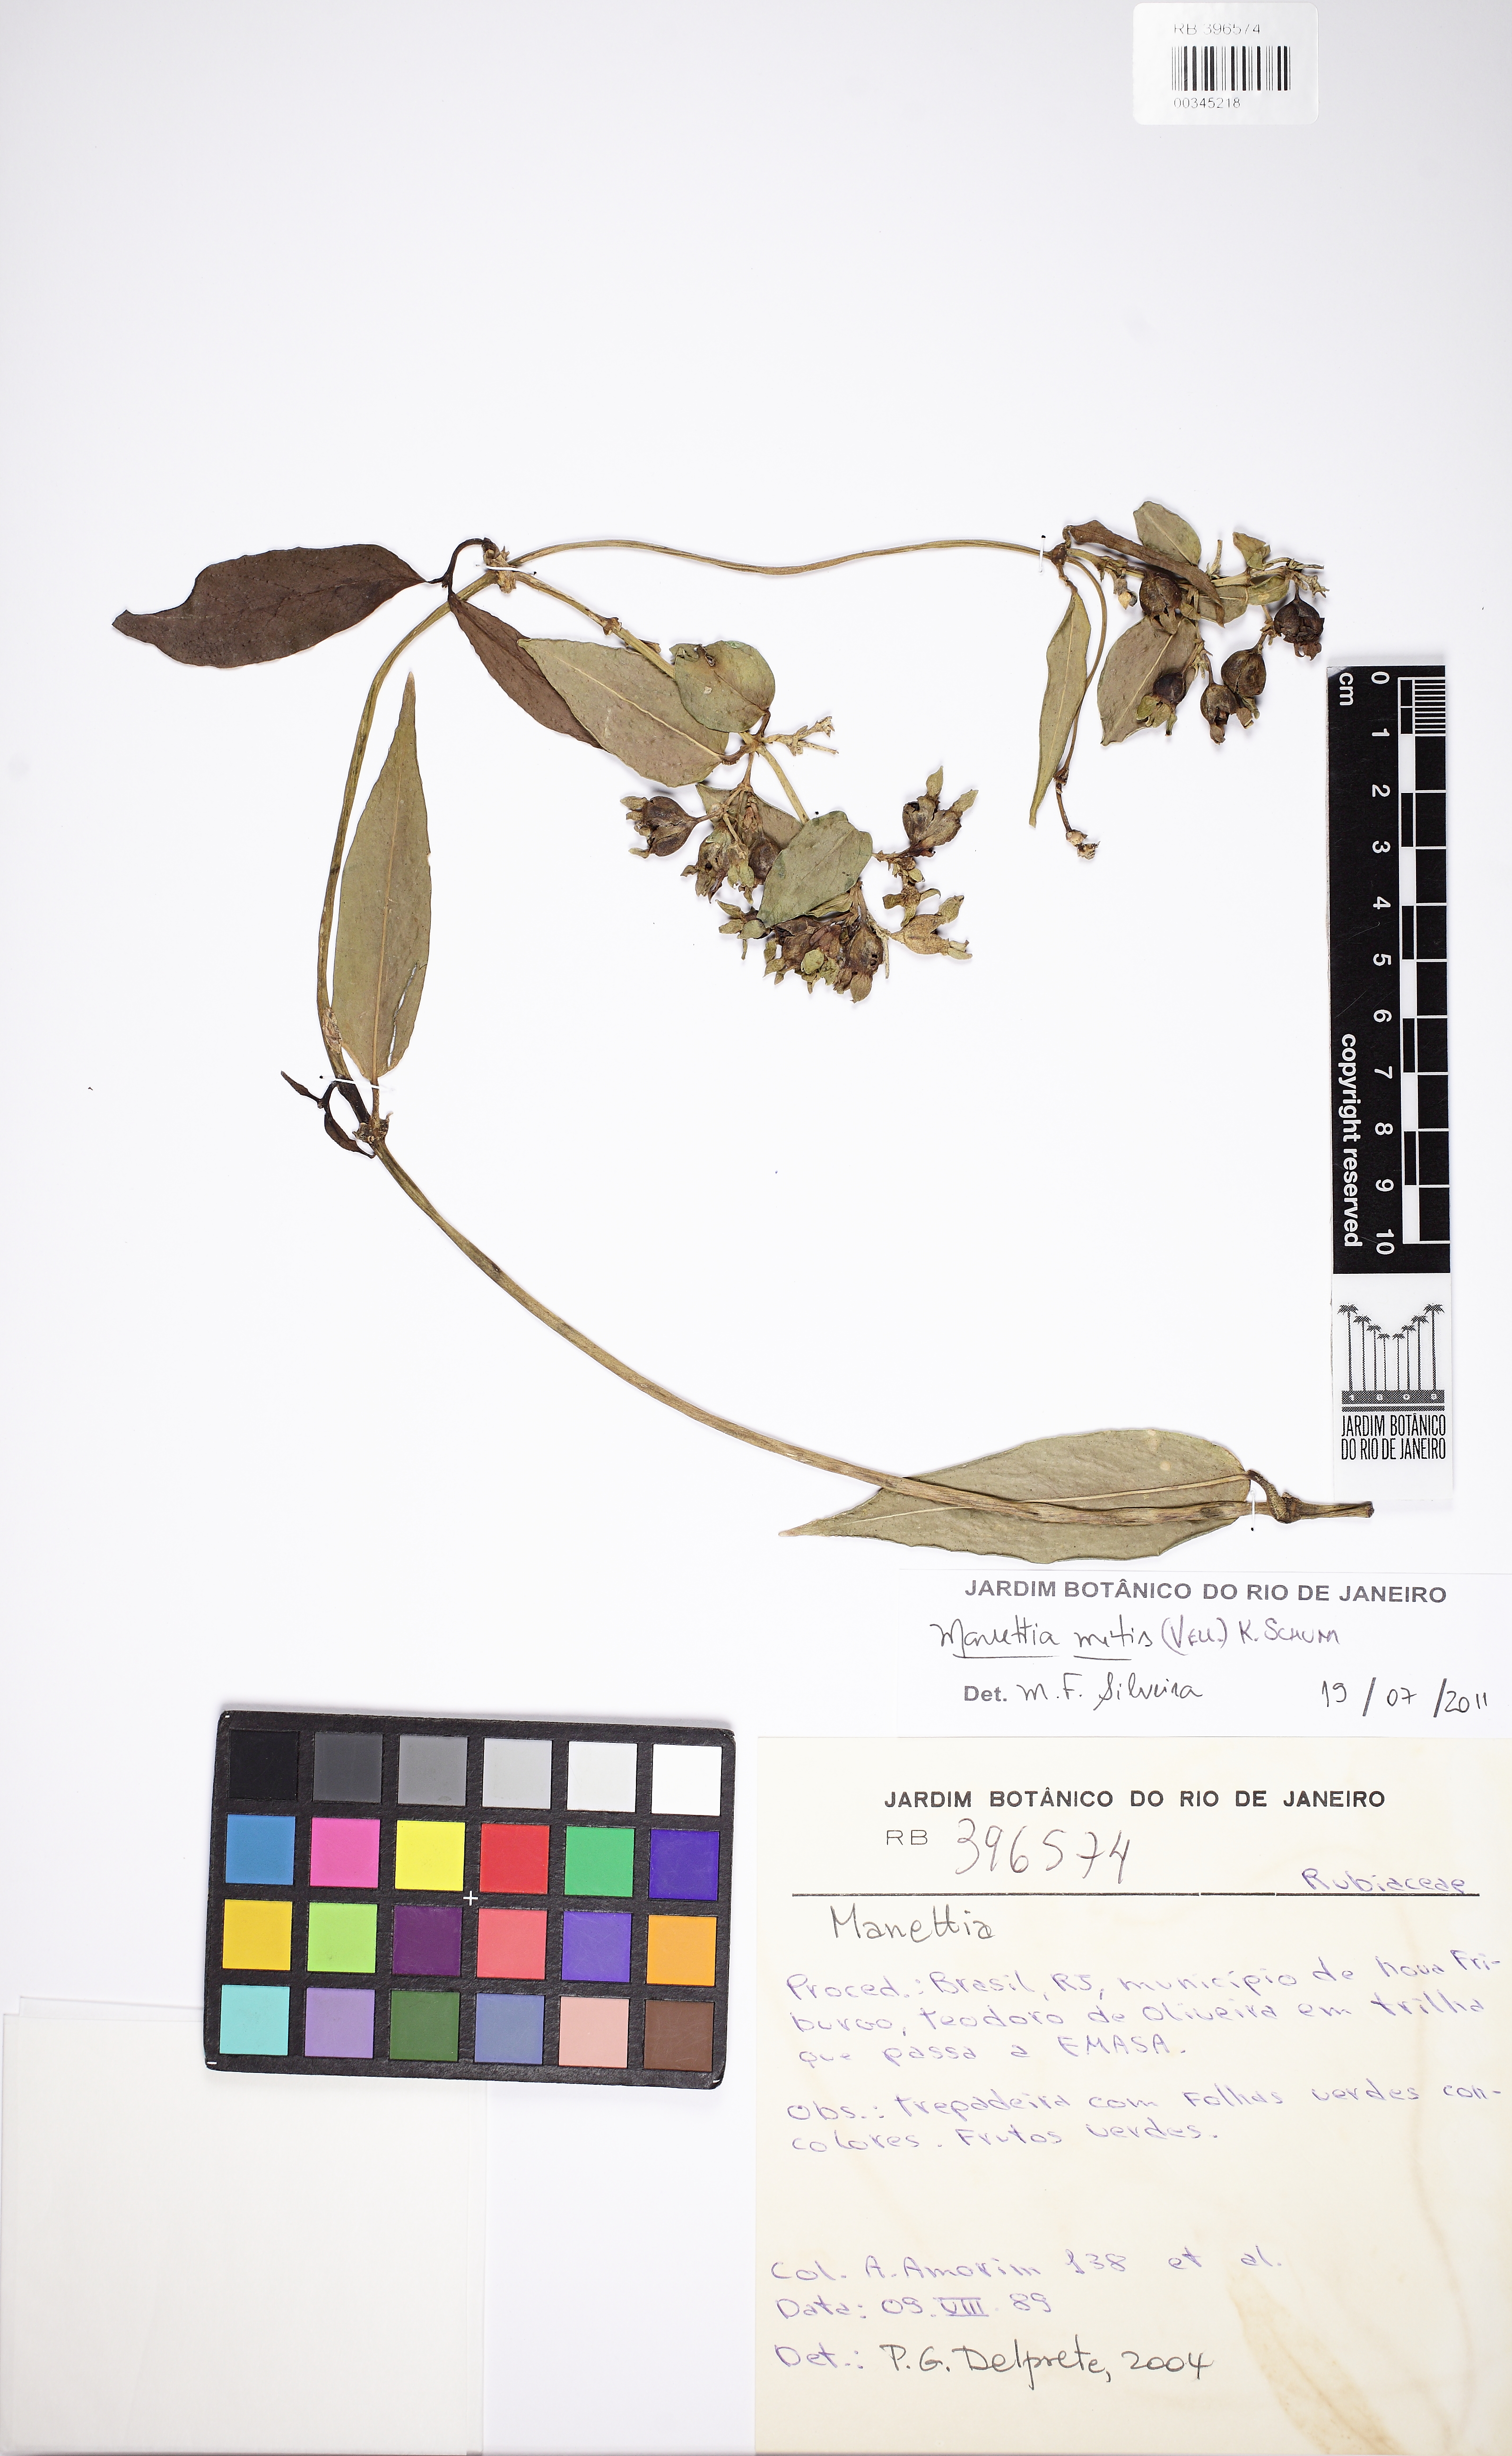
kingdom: Plantae
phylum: Tracheophyta
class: Magnoliopsida
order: Gentianales
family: Rubiaceae
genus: Manettia
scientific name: Manettia mitis
